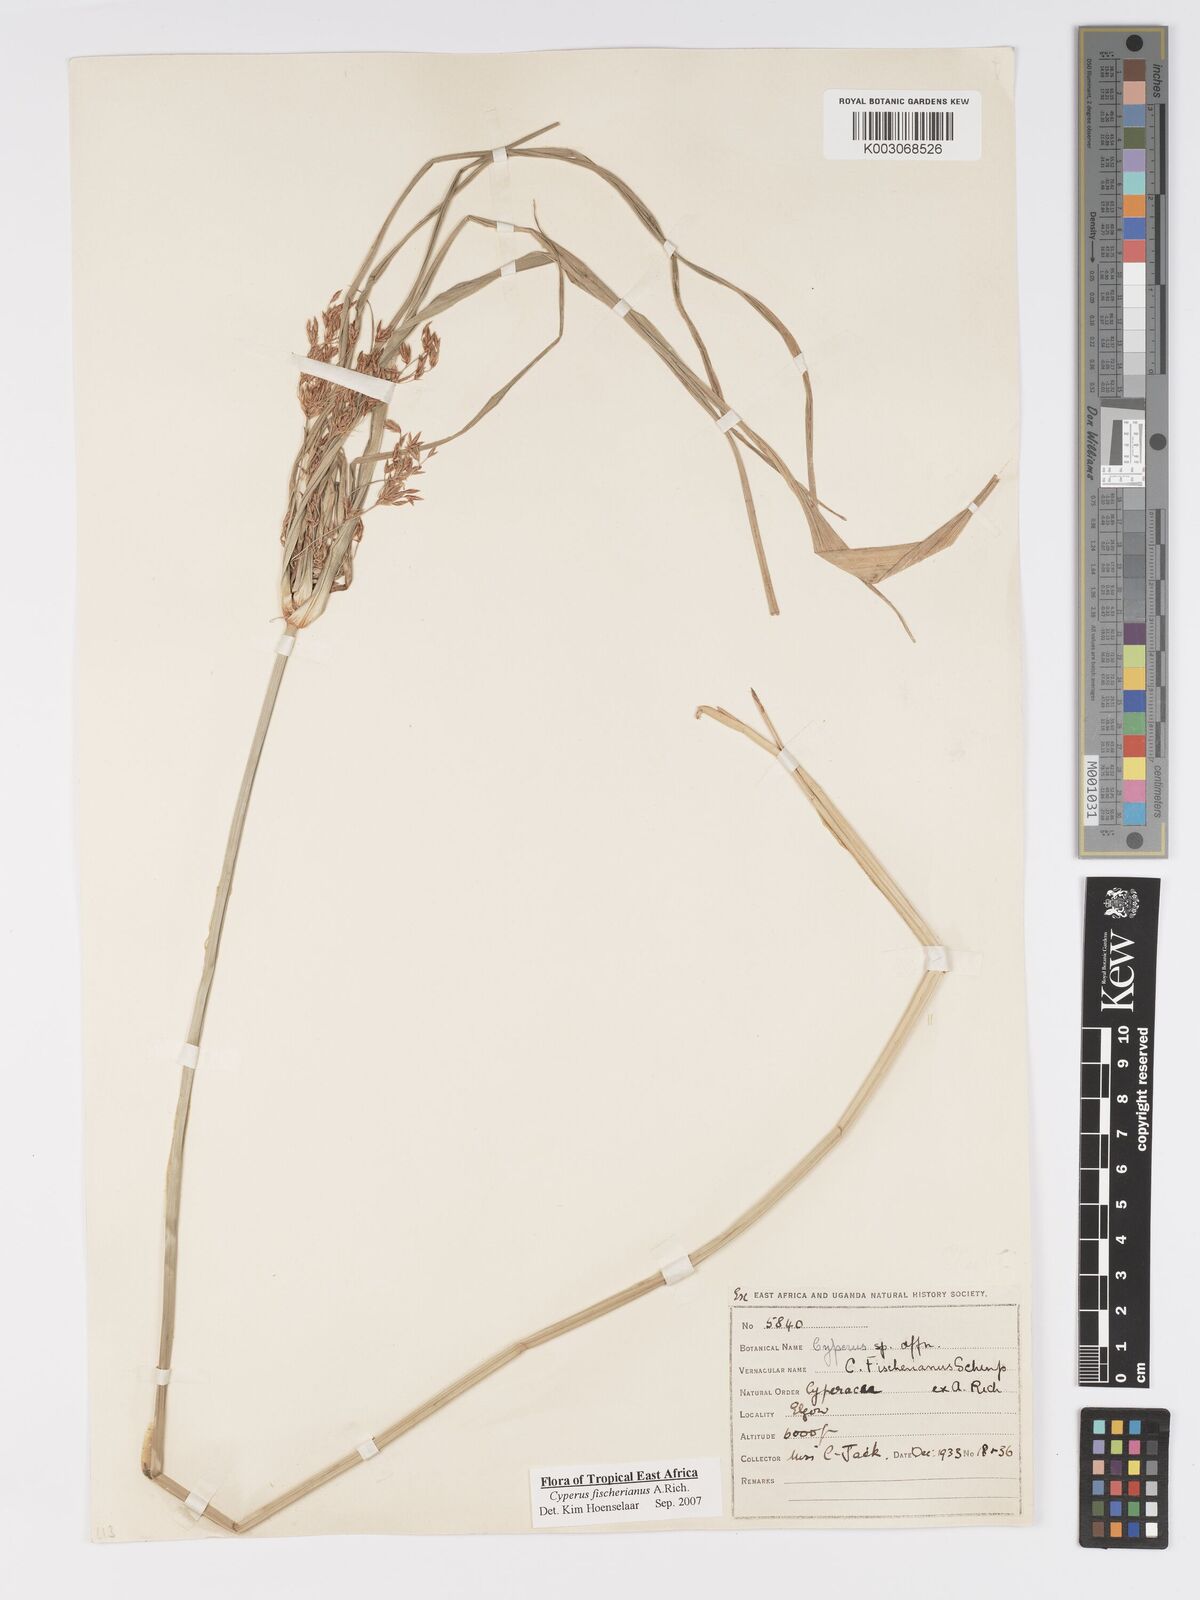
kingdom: Plantae
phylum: Tracheophyta
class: Liliopsida
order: Poales
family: Cyperaceae
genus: Cyperus
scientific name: Cyperus fischerianus
